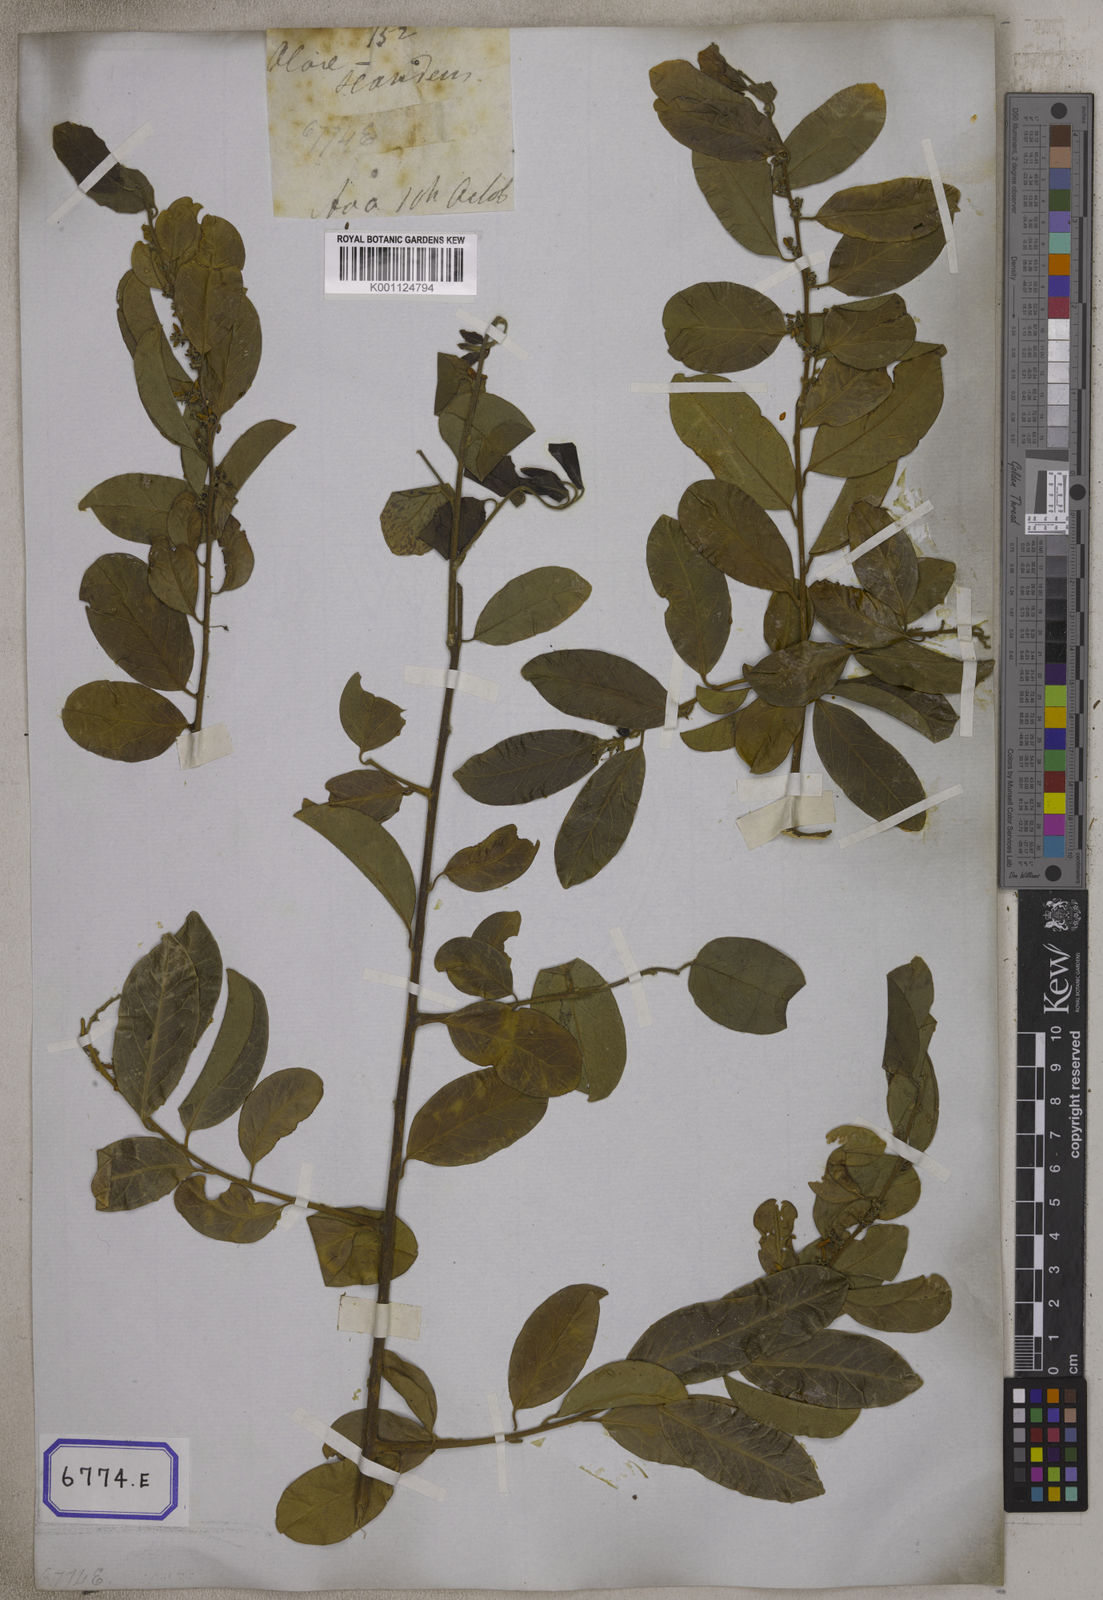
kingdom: Plantae
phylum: Tracheophyta
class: Magnoliopsida
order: Santalales
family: Olacaceae
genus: Olax
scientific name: Olax psittacorum
